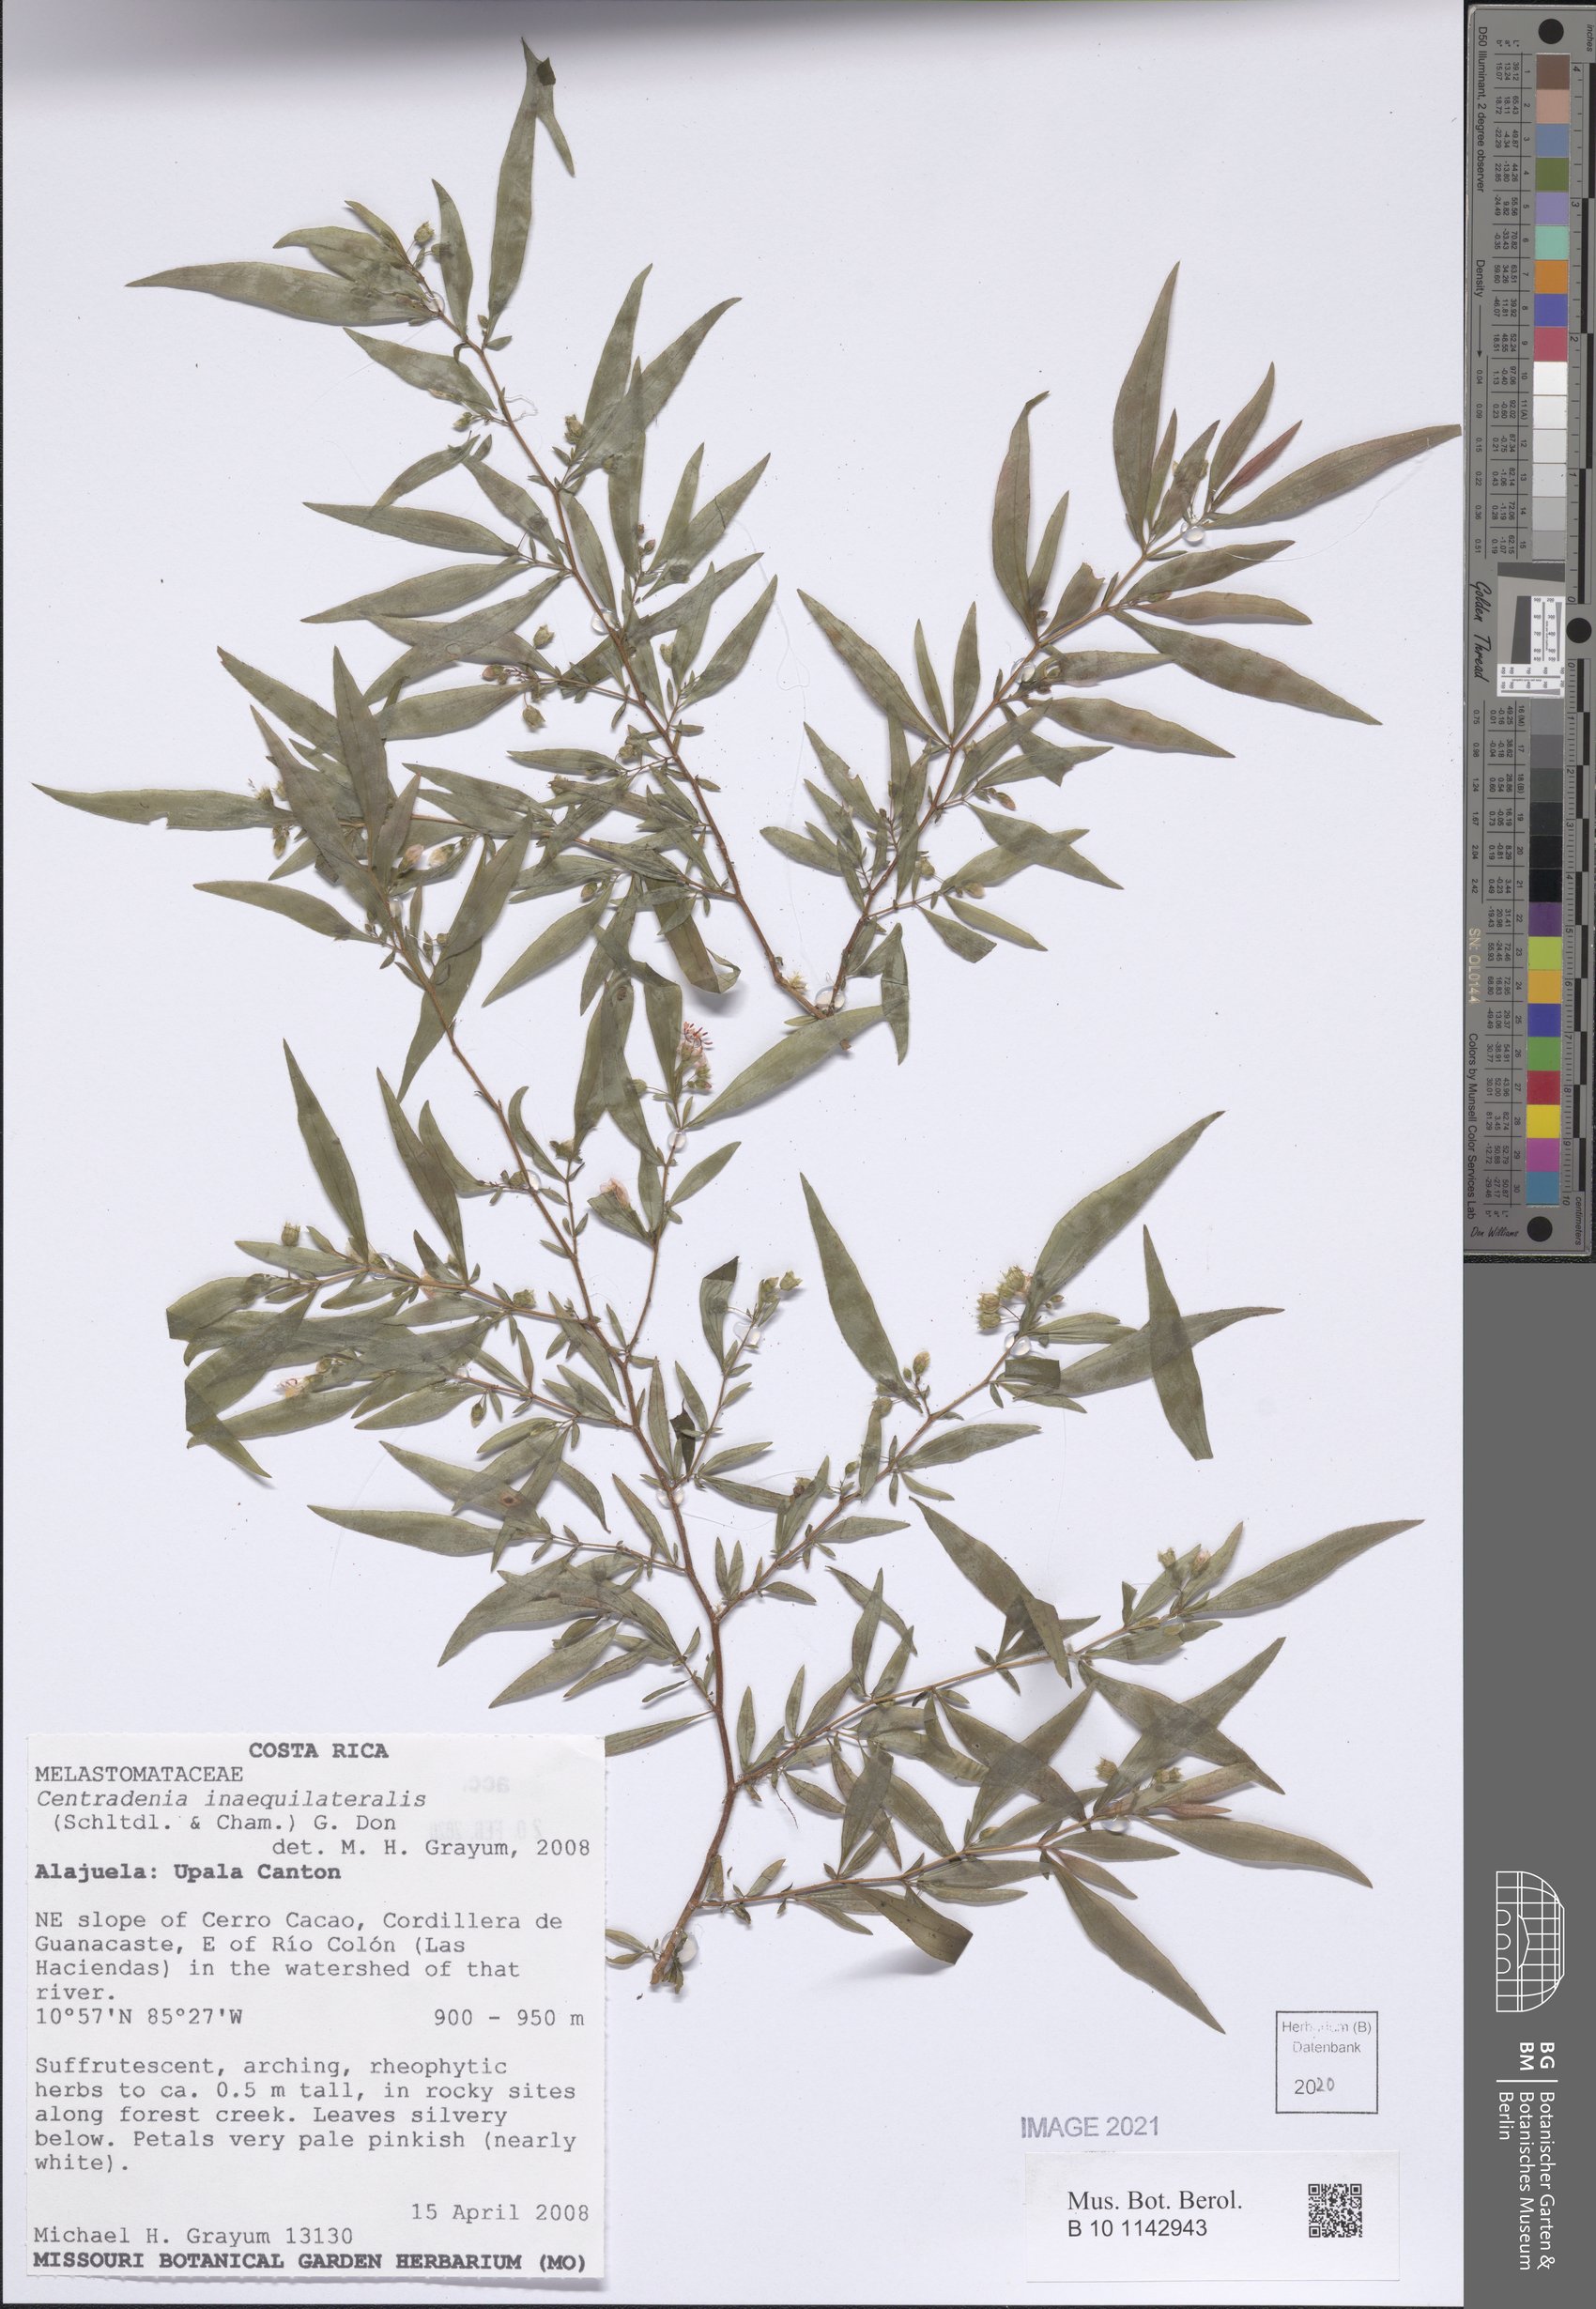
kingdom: Plantae
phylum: Tracheophyta
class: Magnoliopsida
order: Myrtales
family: Melastomataceae
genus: Centradenia
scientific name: Centradenia inaequilateralis
